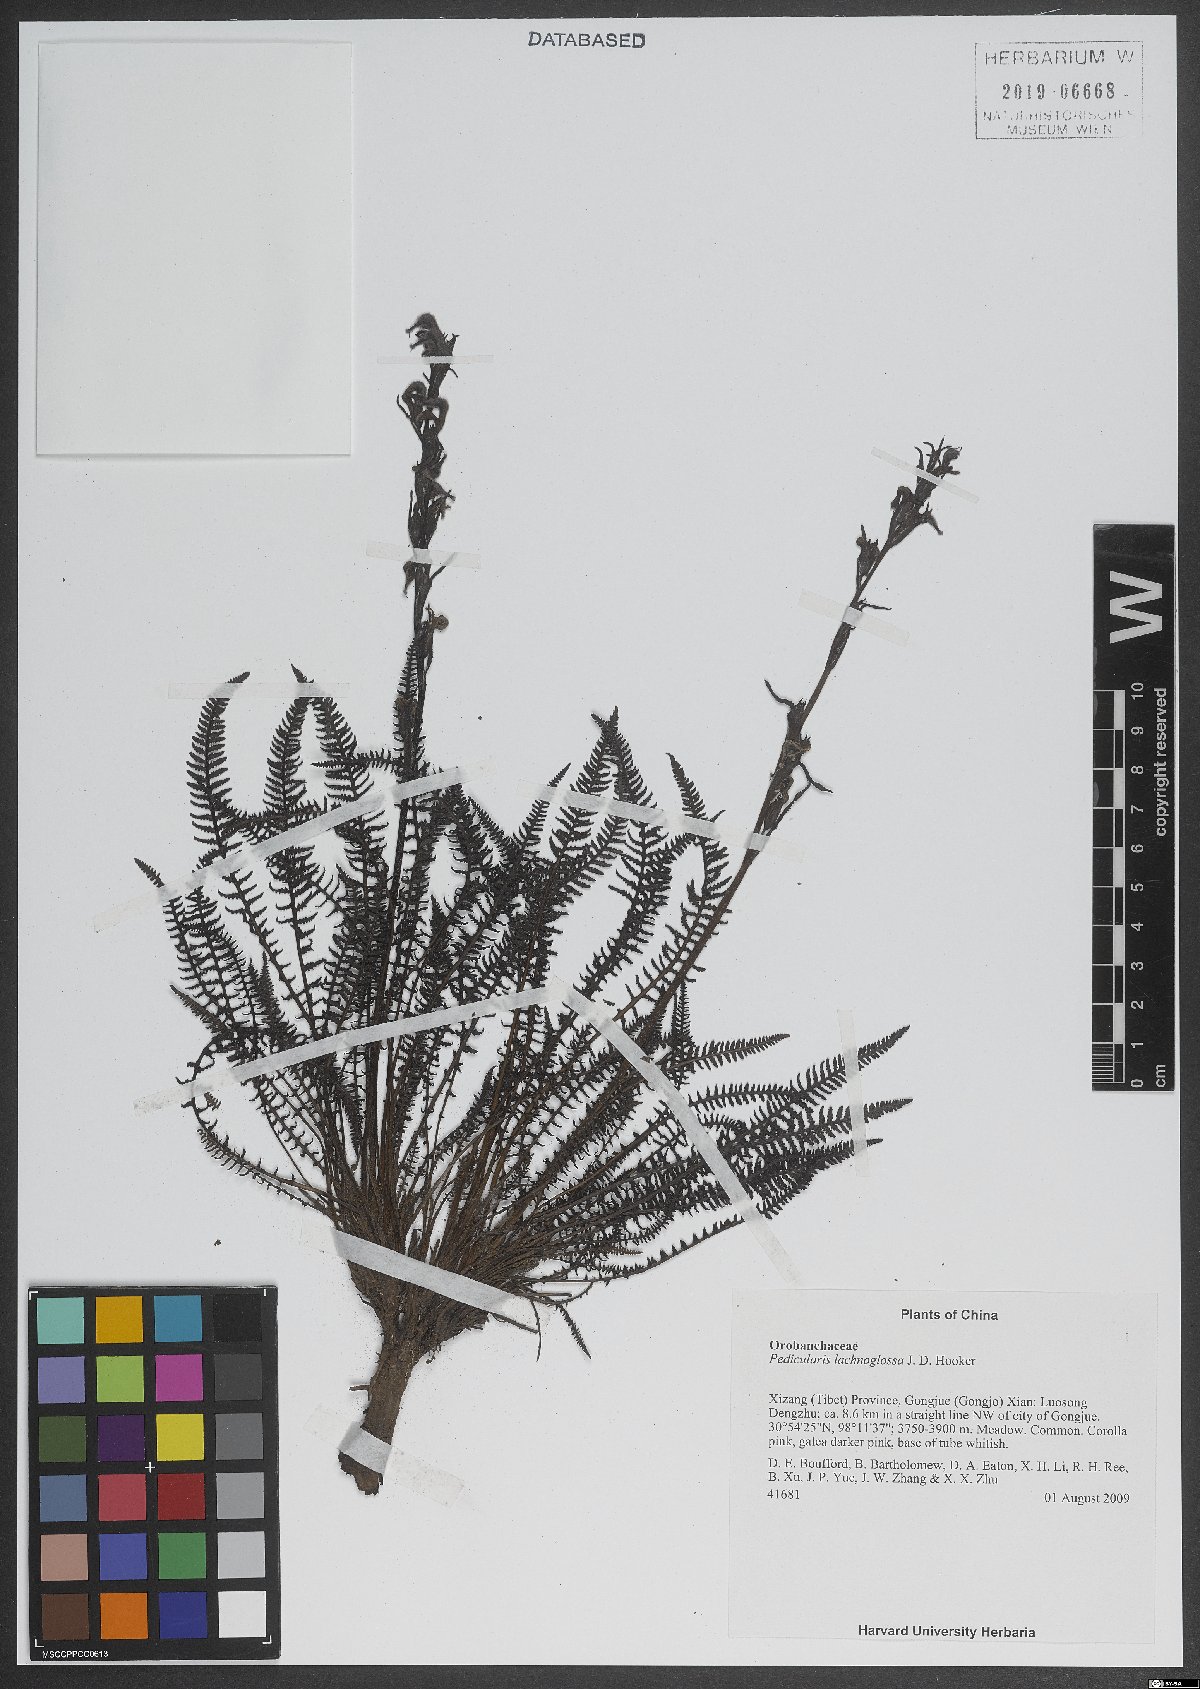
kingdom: Plantae
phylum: Tracheophyta
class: Magnoliopsida
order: Lamiales
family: Orobanchaceae
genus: Pedicularis
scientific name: Pedicularis lachnoglossa
